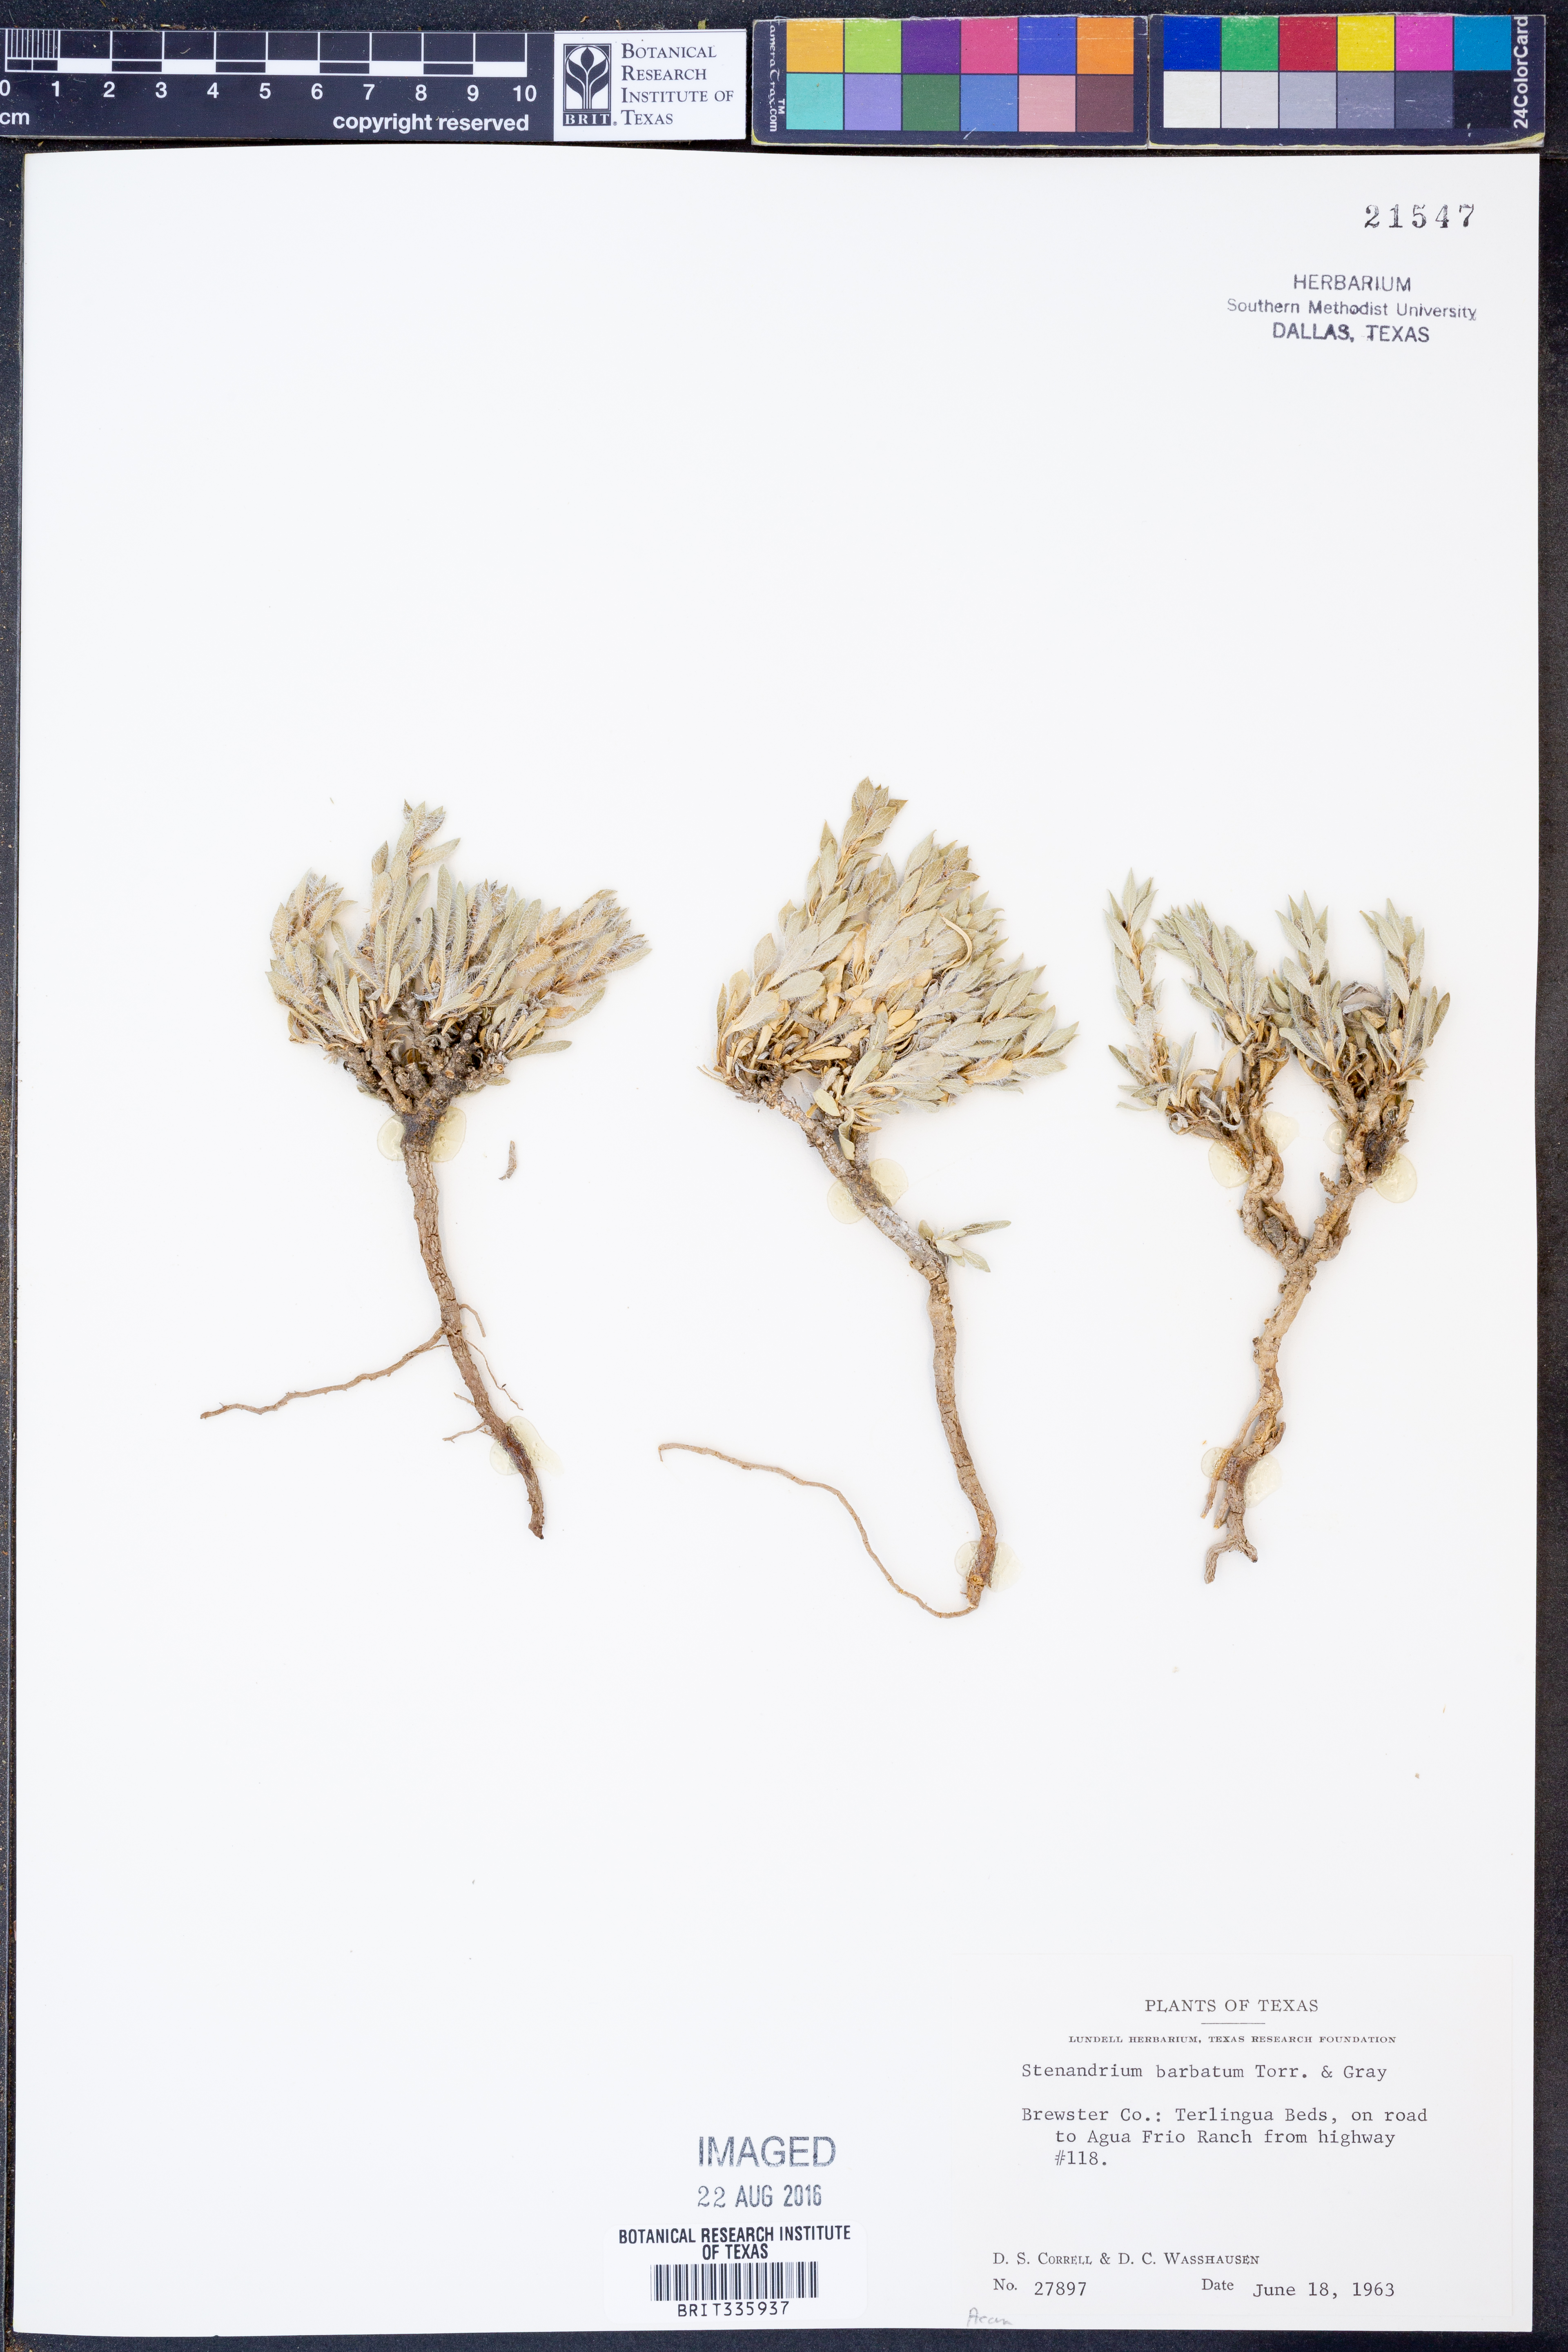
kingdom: Plantae
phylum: Tracheophyta
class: Magnoliopsida
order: Lamiales
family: Acanthaceae
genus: Stenandrium
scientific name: Stenandrium barbatum
